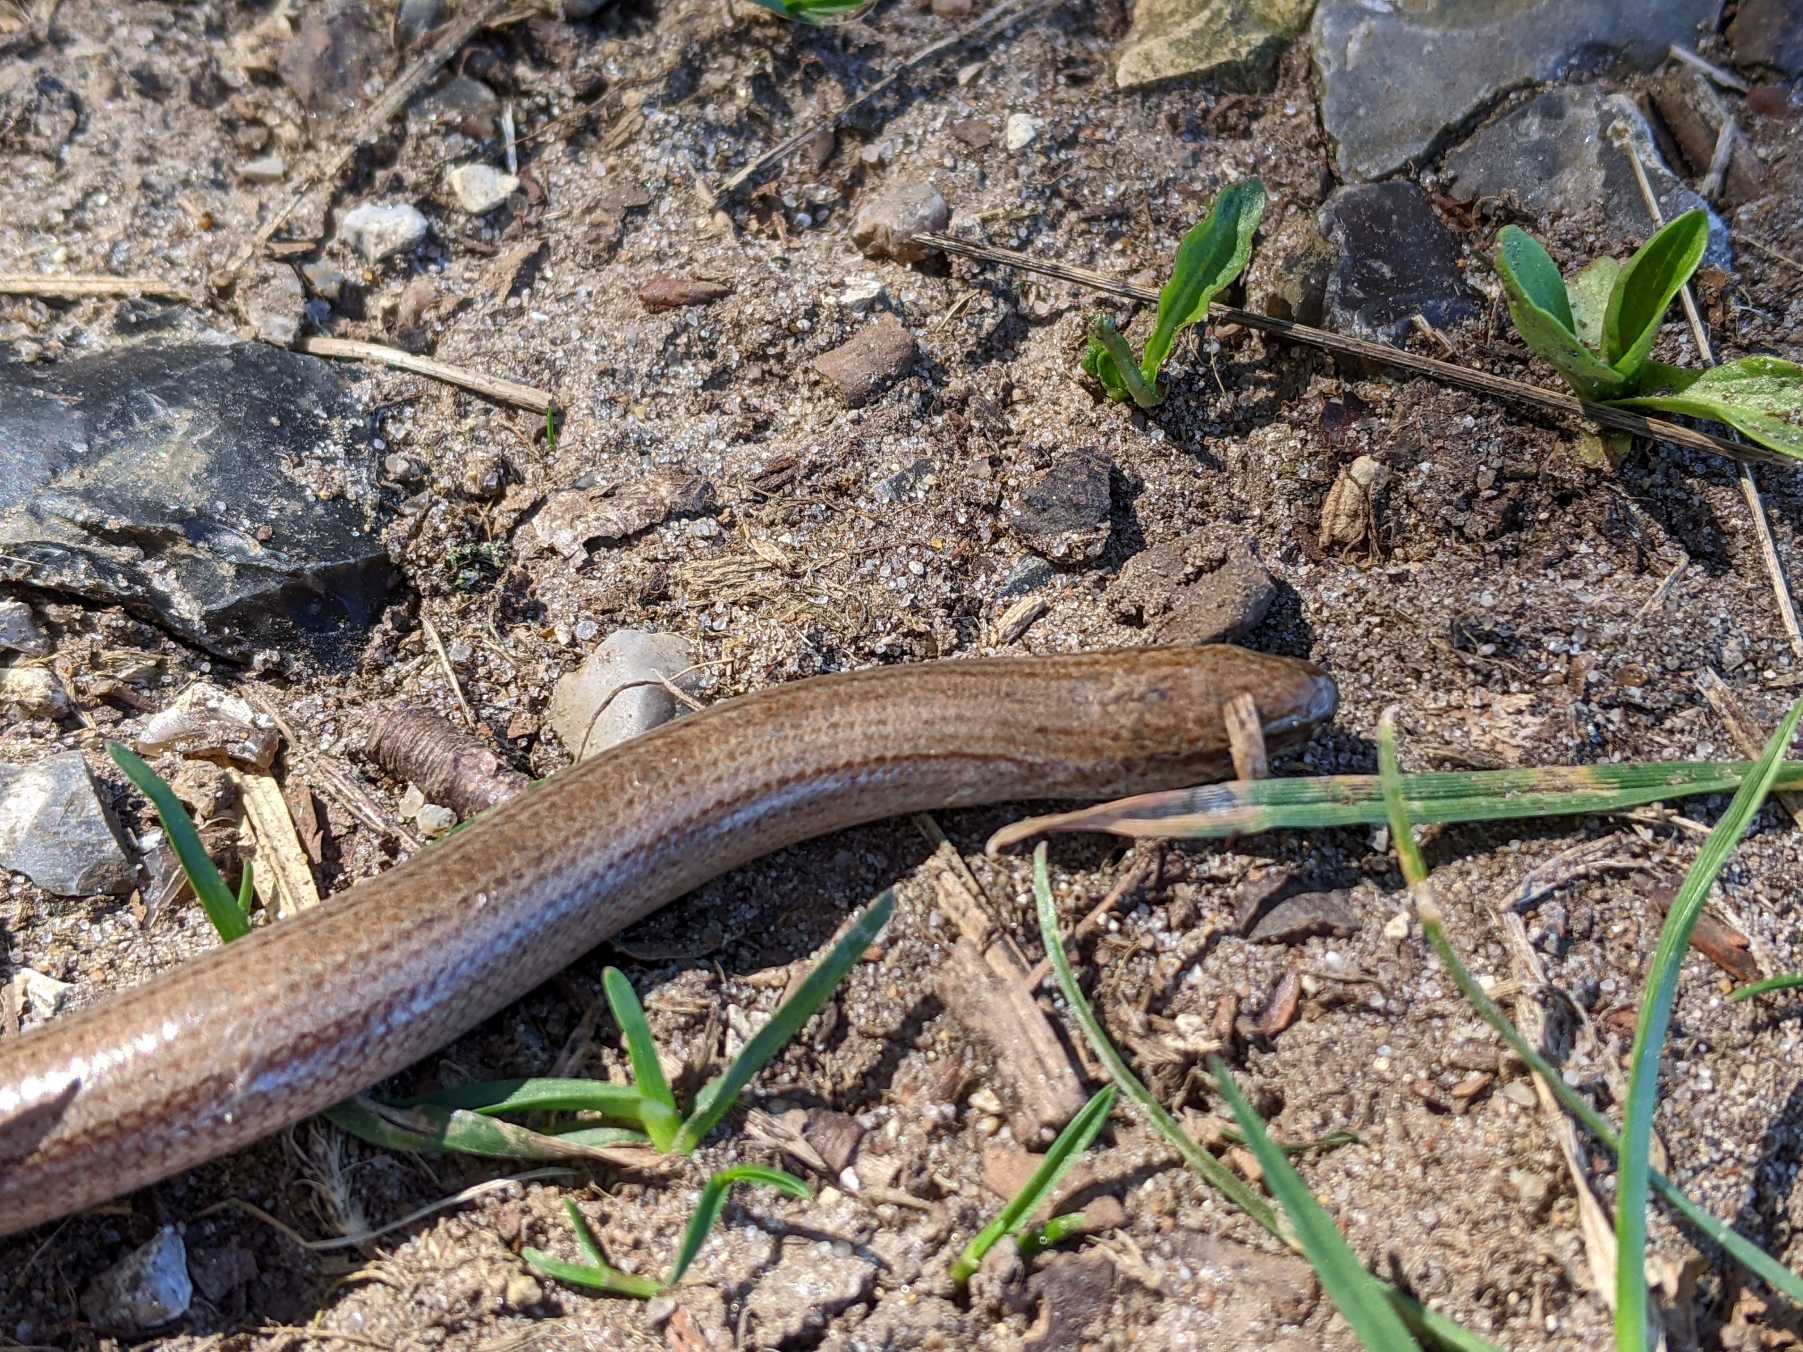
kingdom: Animalia
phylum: Chordata
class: Squamata
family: Anguidae
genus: Anguis
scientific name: Anguis fragilis
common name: Stålorm
